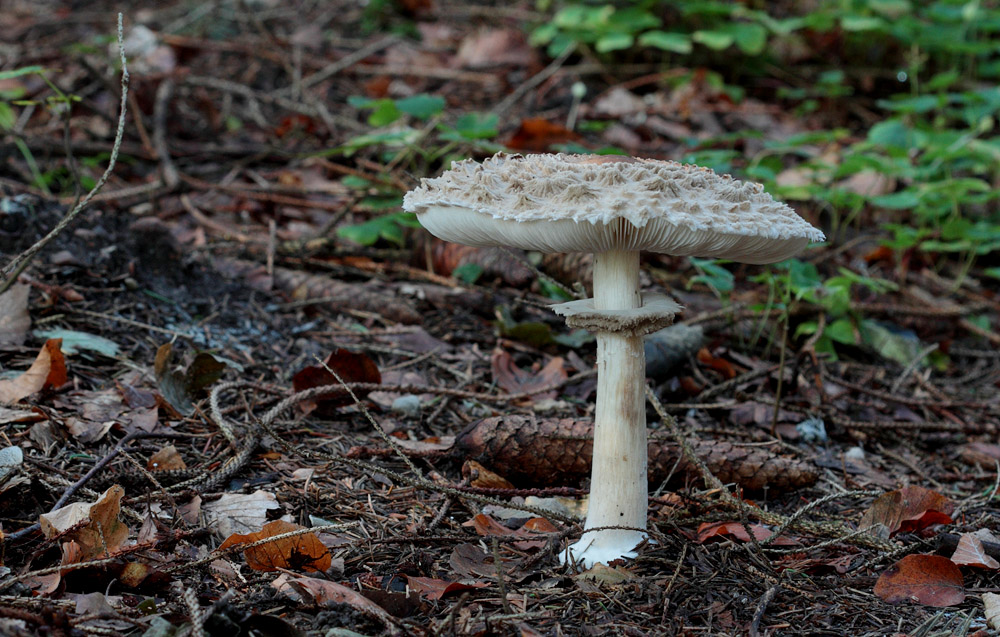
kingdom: Fungi
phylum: Basidiomycota
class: Agaricomycetes
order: Agaricales
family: Agaricaceae
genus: Chlorophyllum
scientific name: Chlorophyllum olivieri
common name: almindelig rabarberhat
